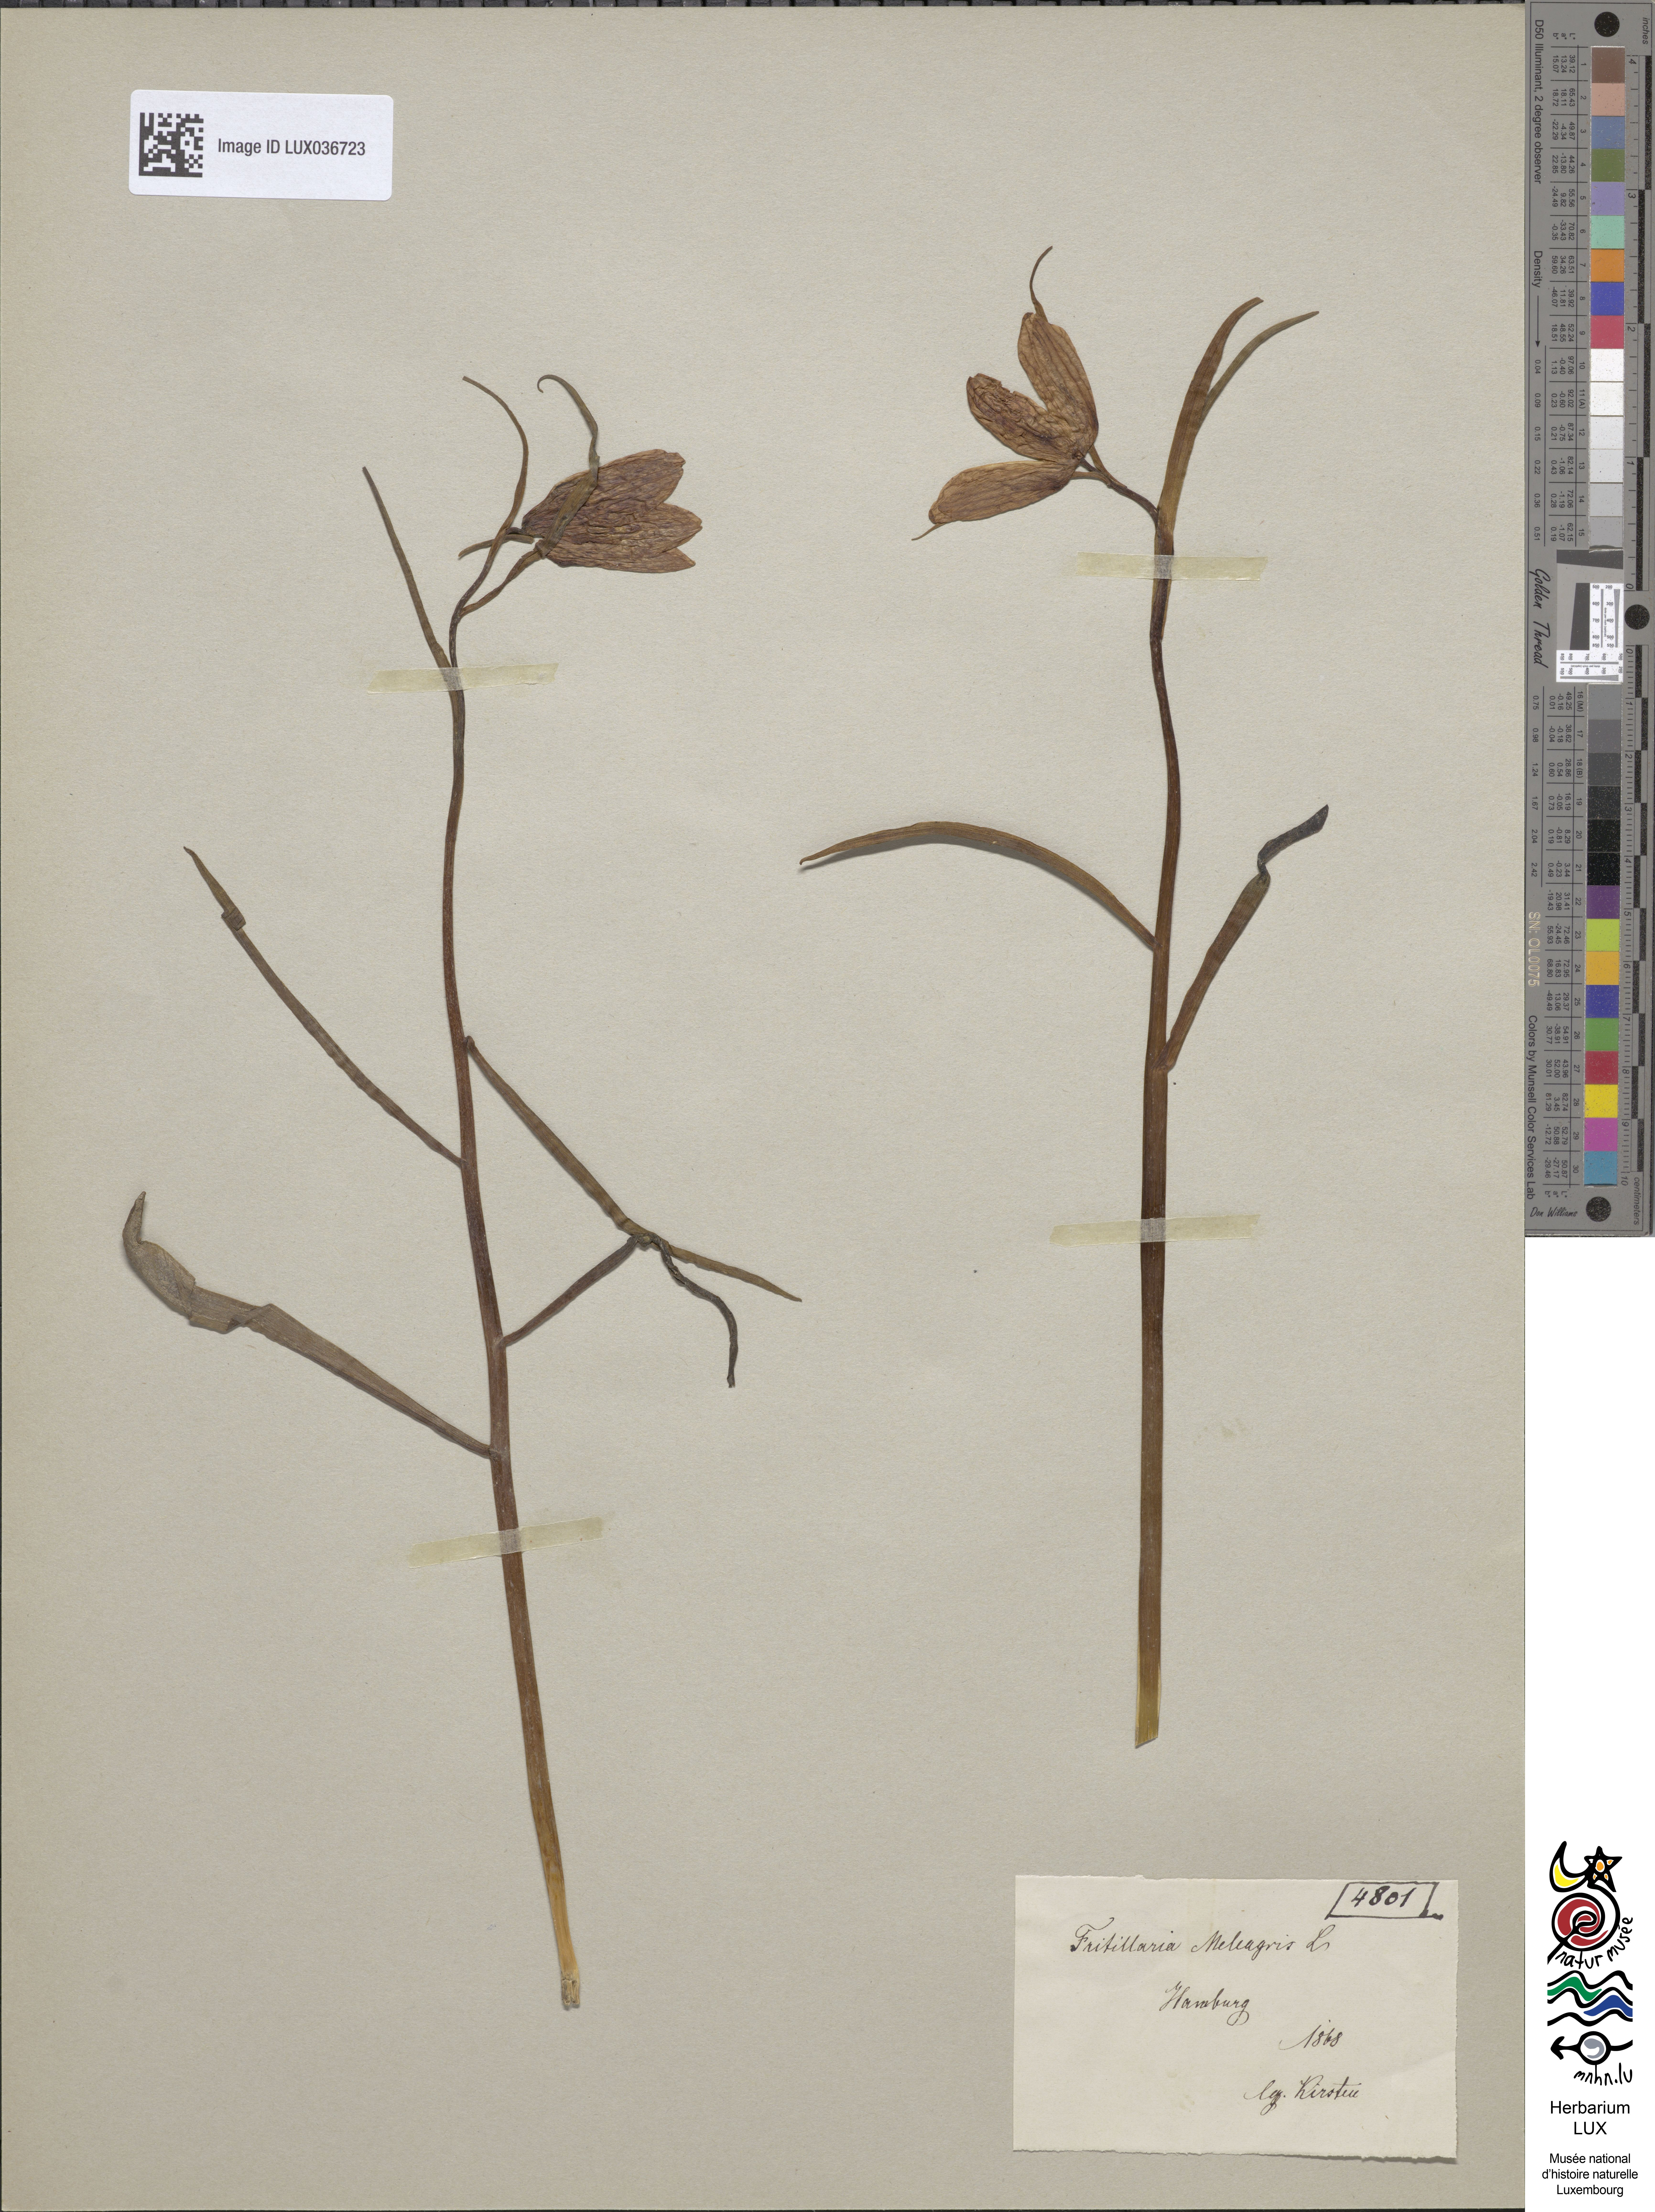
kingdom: Plantae
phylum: Tracheophyta
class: Liliopsida
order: Liliales
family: Liliaceae
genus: Fritillaria
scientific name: Fritillaria meleagris
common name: Fritillary
